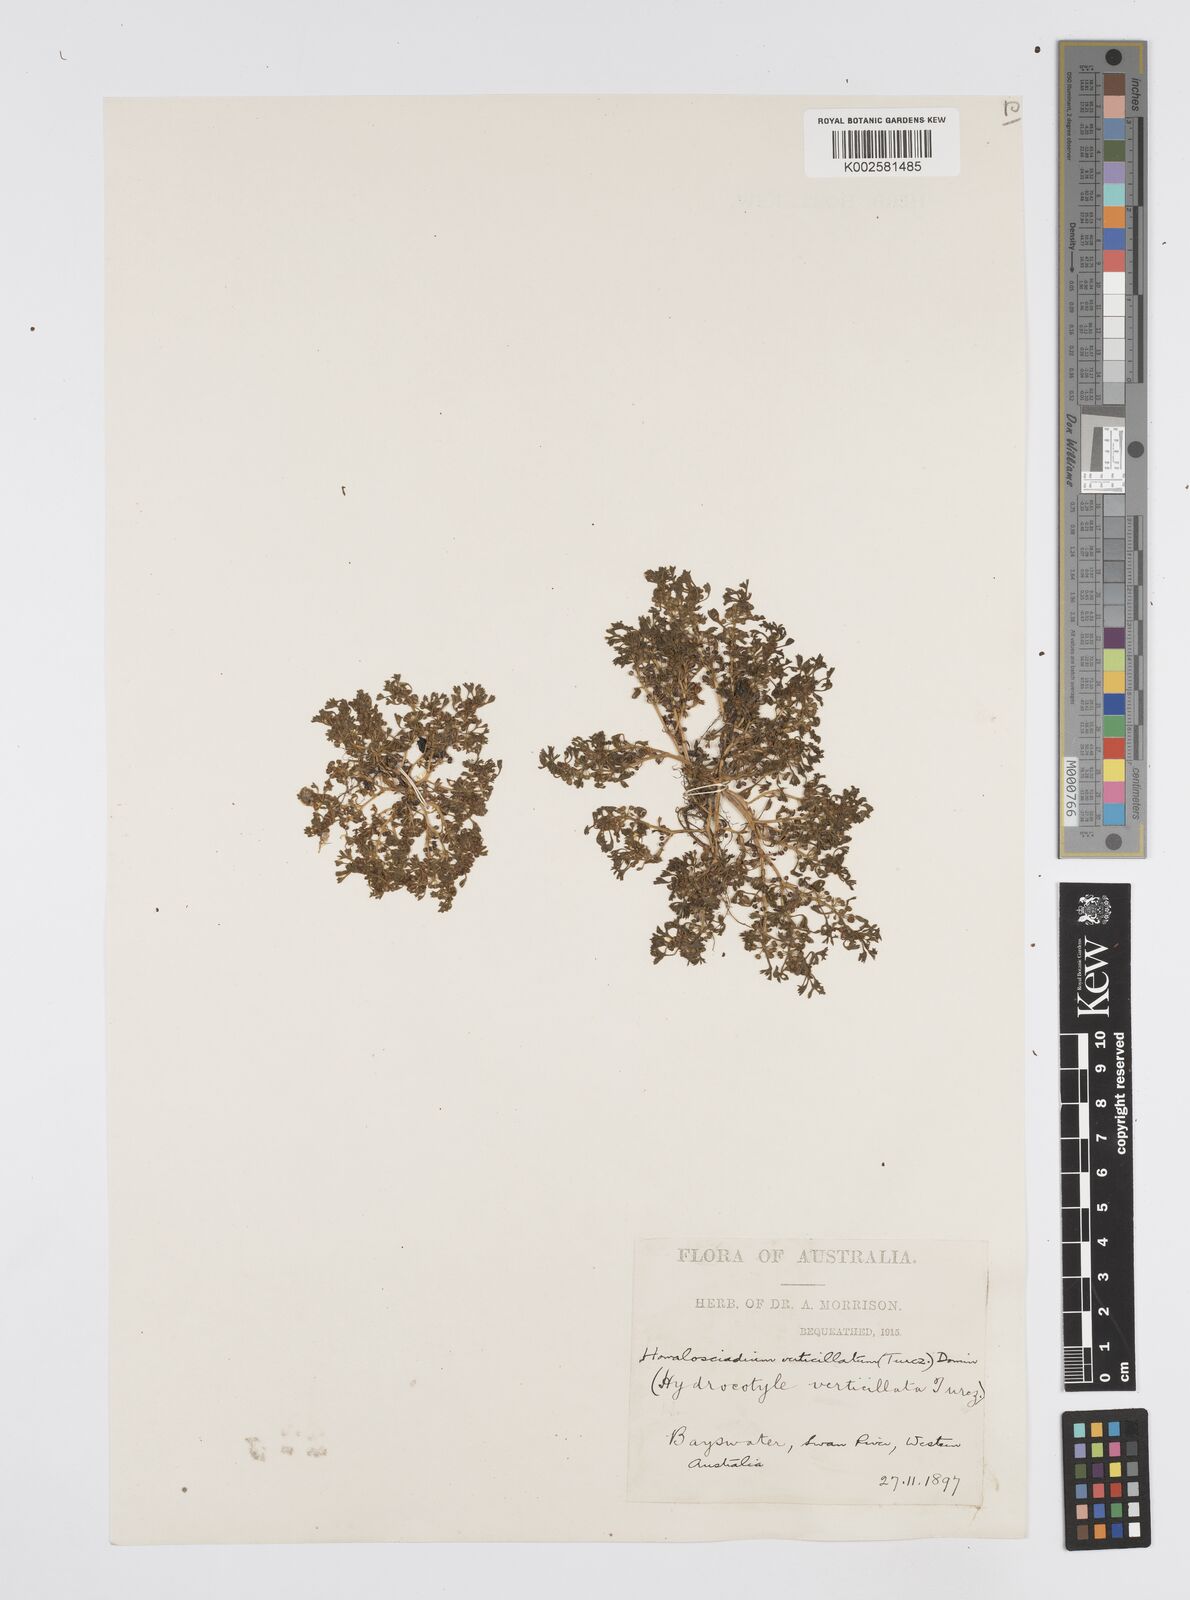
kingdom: Plantae
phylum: Tracheophyta
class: Magnoliopsida
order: Apiales
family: Apiaceae
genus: Homalosciadium
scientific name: Homalosciadium homalocarpum
